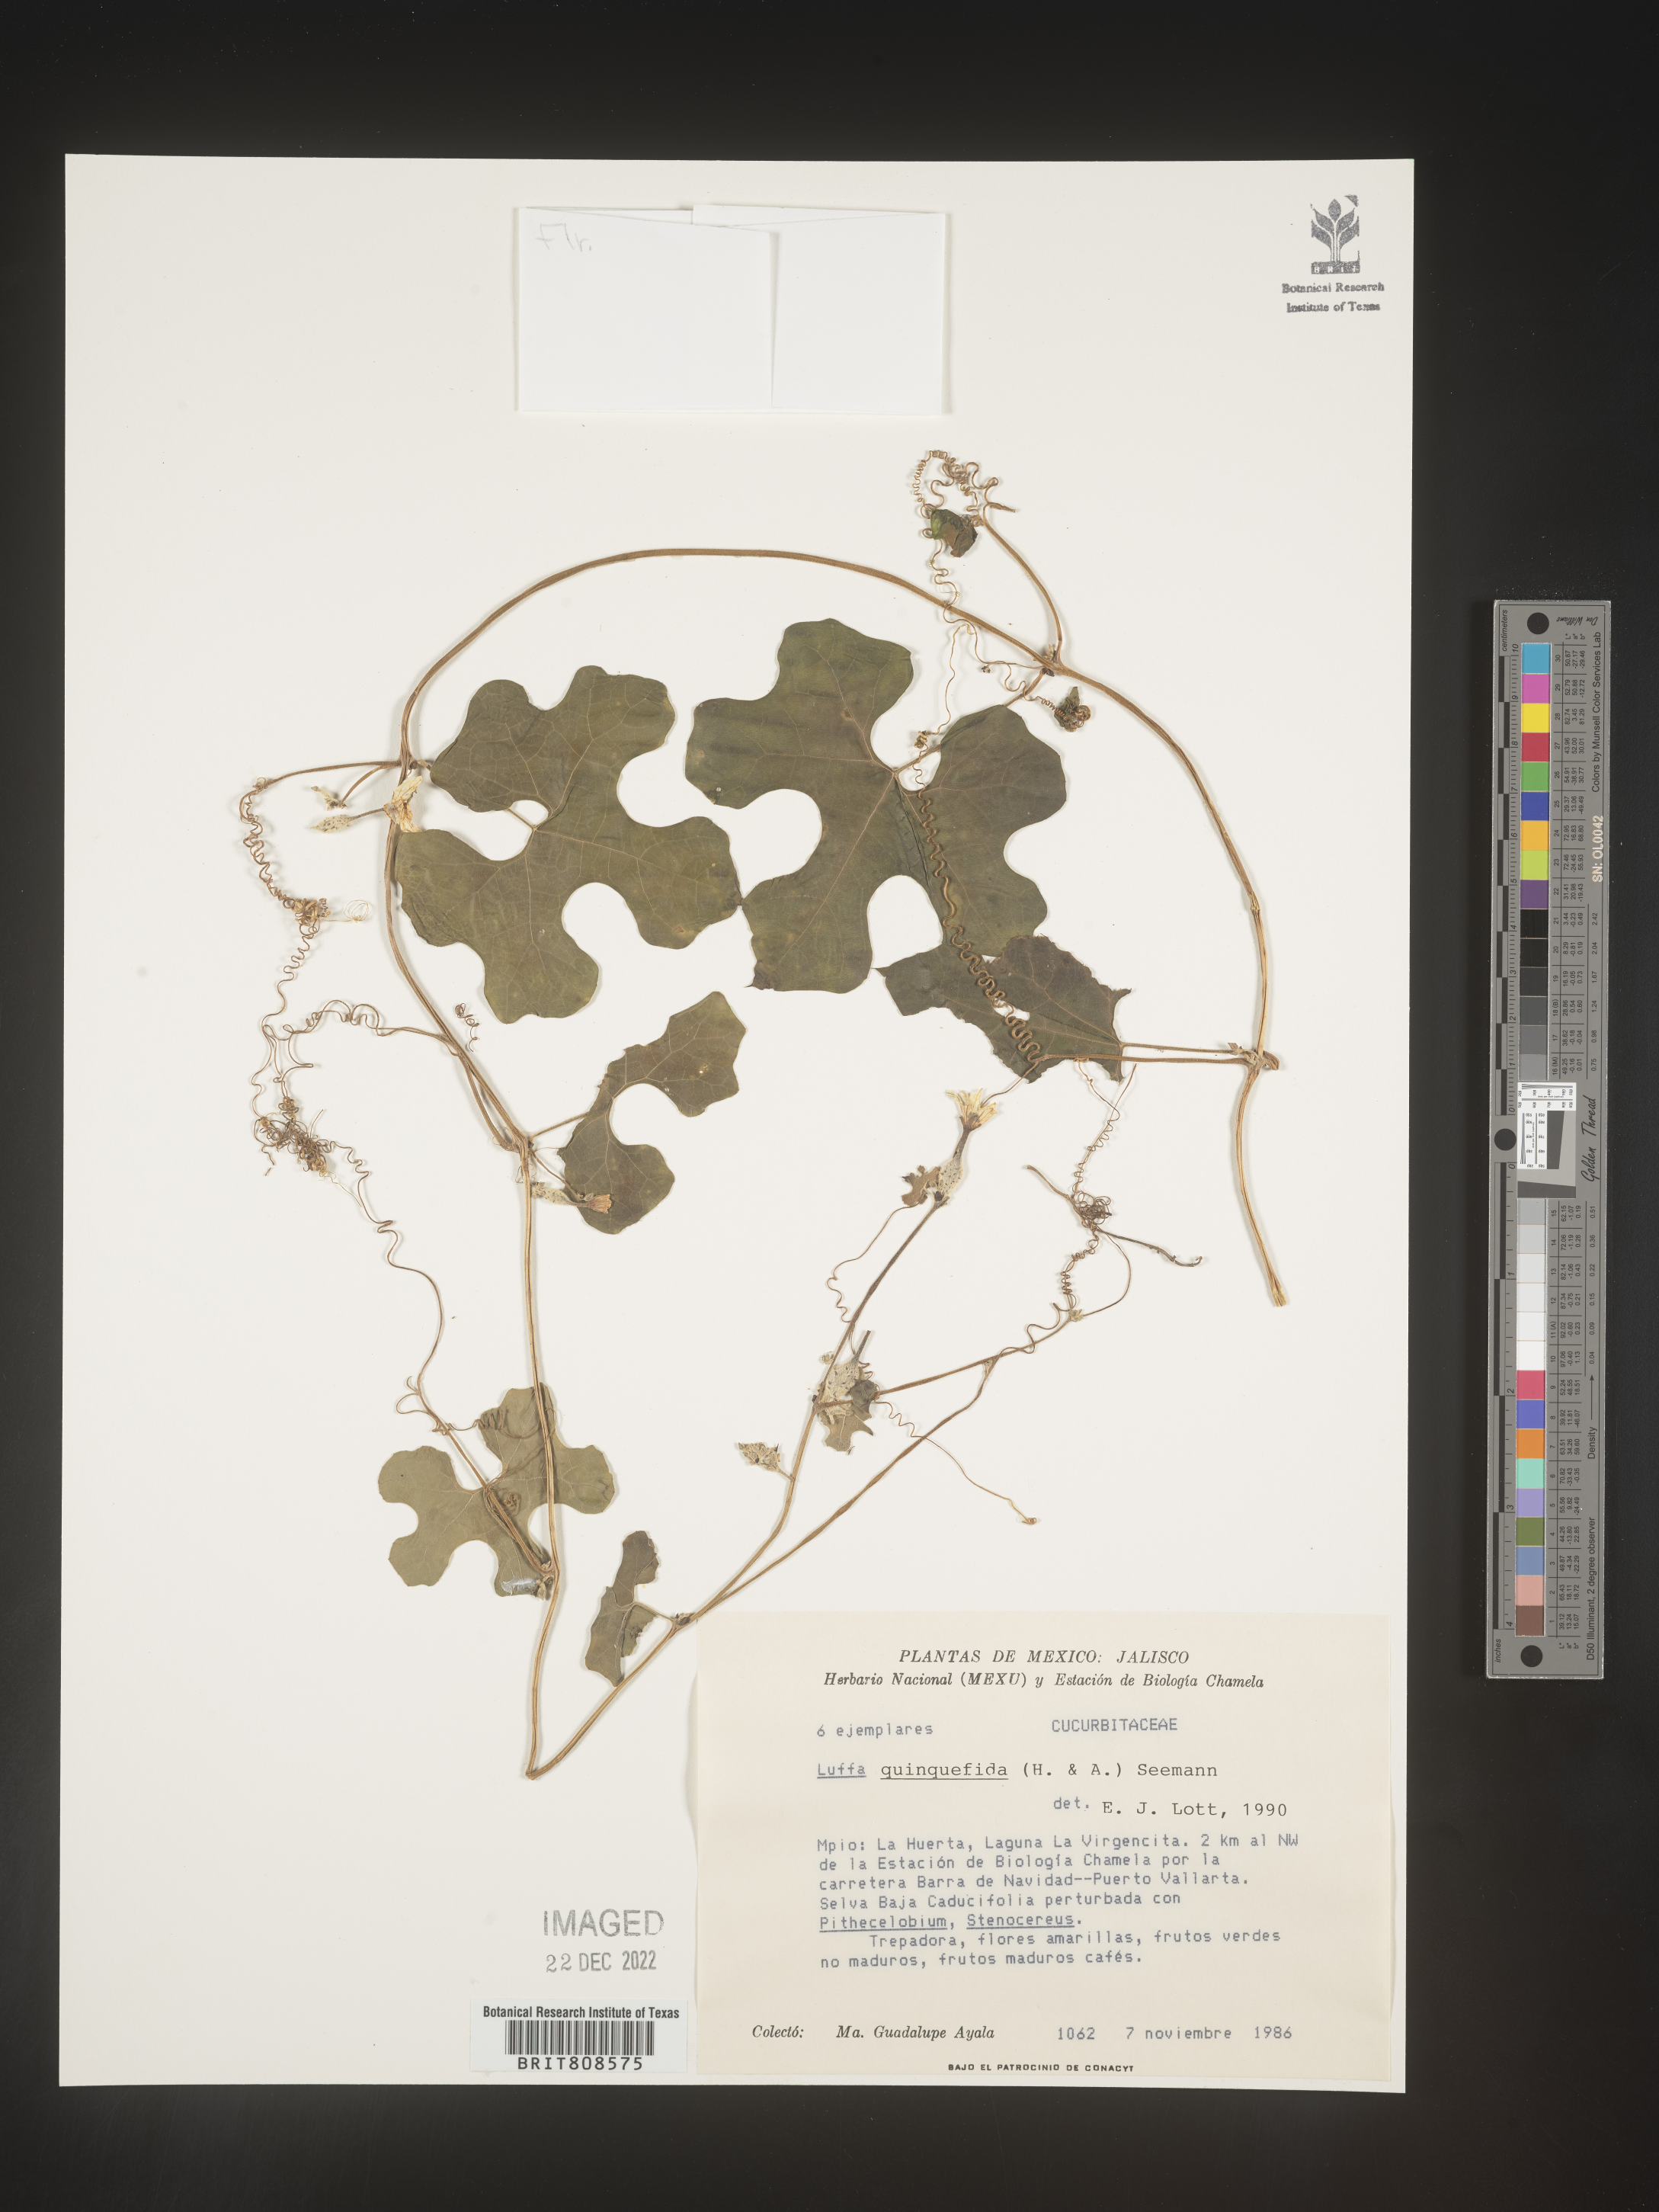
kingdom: Plantae
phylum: Tracheophyta
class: Magnoliopsida
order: Cucurbitales
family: Cucurbitaceae
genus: Luffa
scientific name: Luffa
